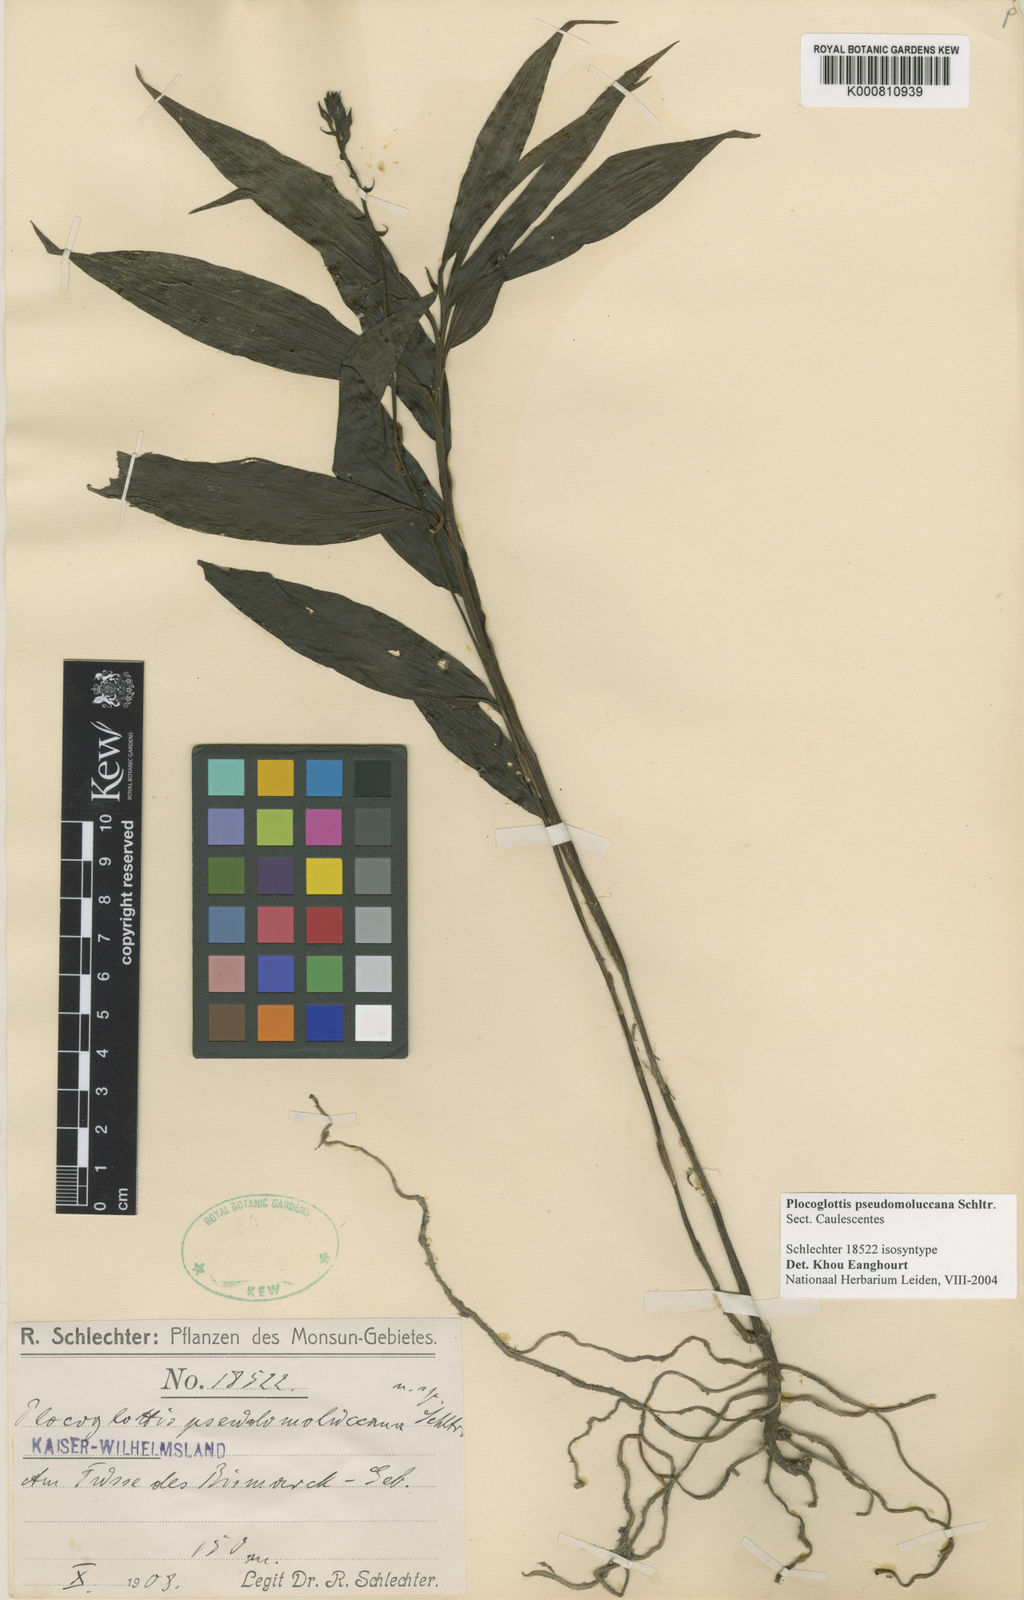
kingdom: Plantae
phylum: Tracheophyta
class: Liliopsida
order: Asparagales
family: Orchidaceae
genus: Plocoglottis
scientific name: Plocoglottis pseudomoluccana
